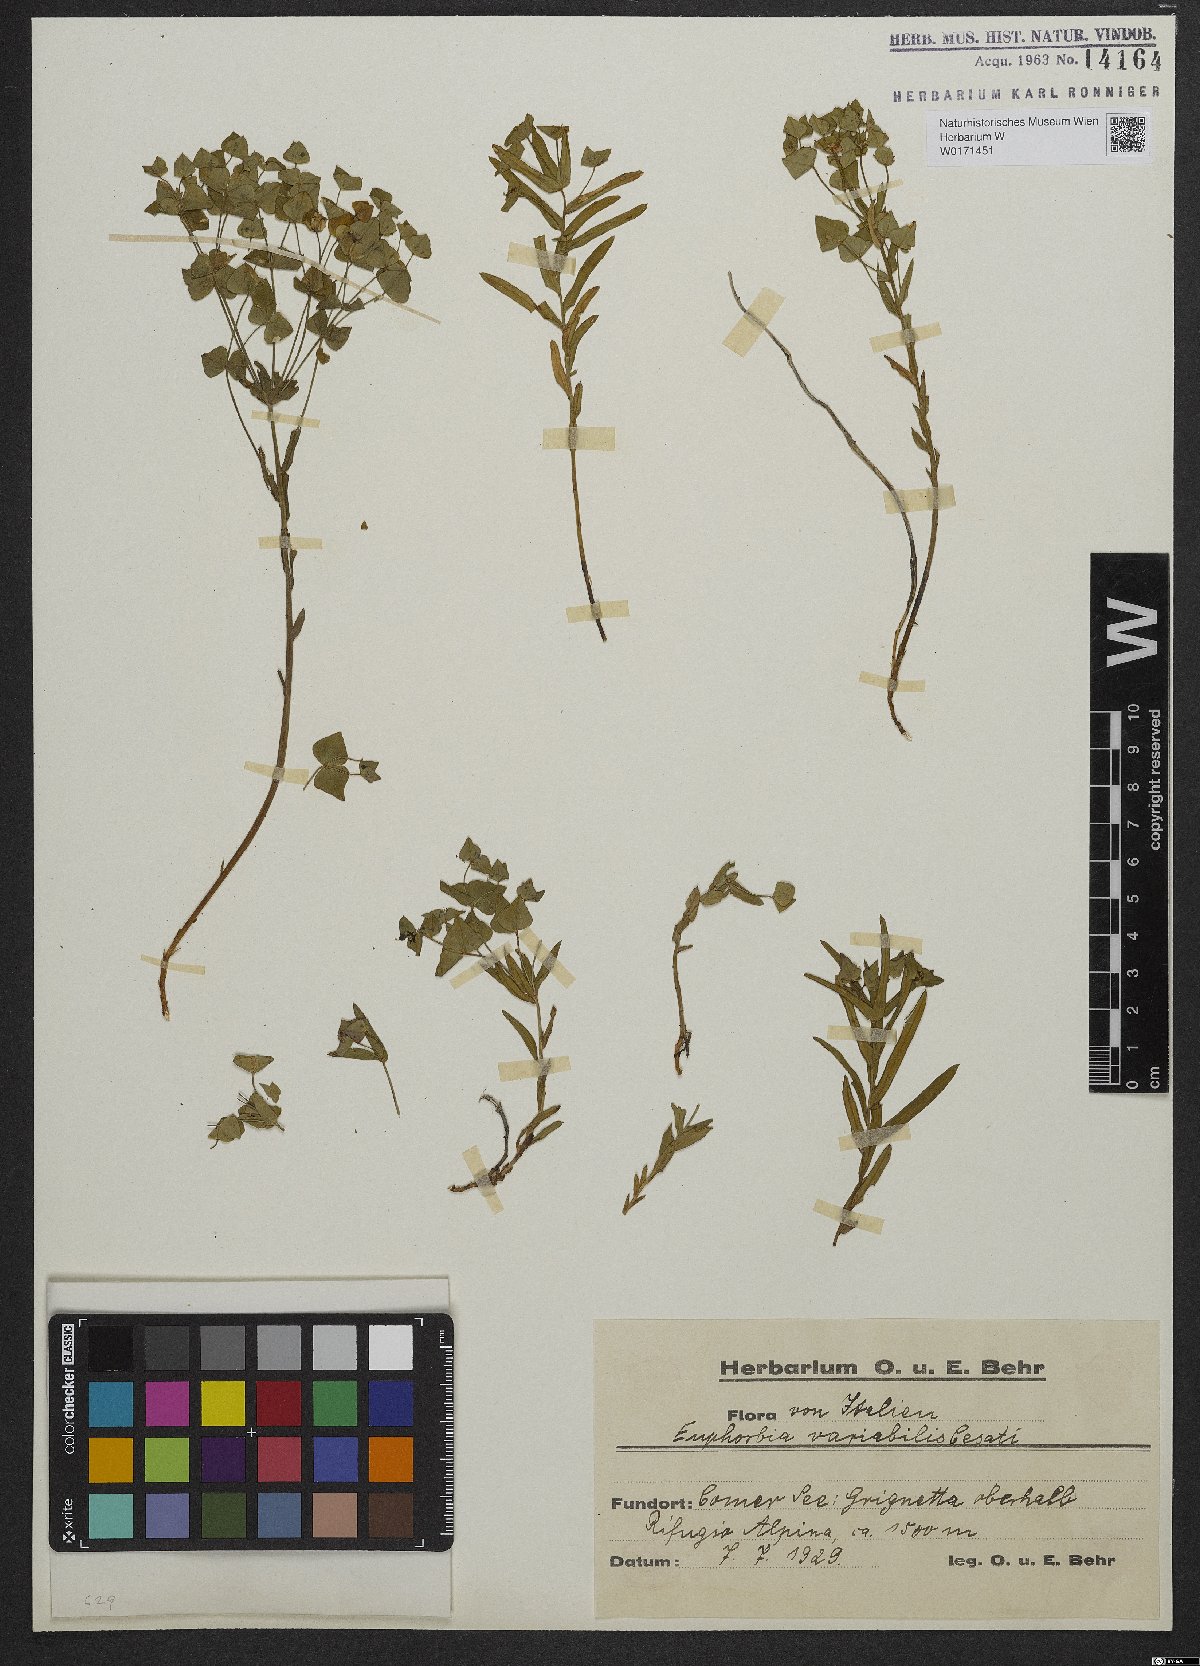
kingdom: Plantae
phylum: Tracheophyta
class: Magnoliopsida
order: Malpighiales
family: Euphorbiaceae
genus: Euphorbia
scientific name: Euphorbia variabilis
